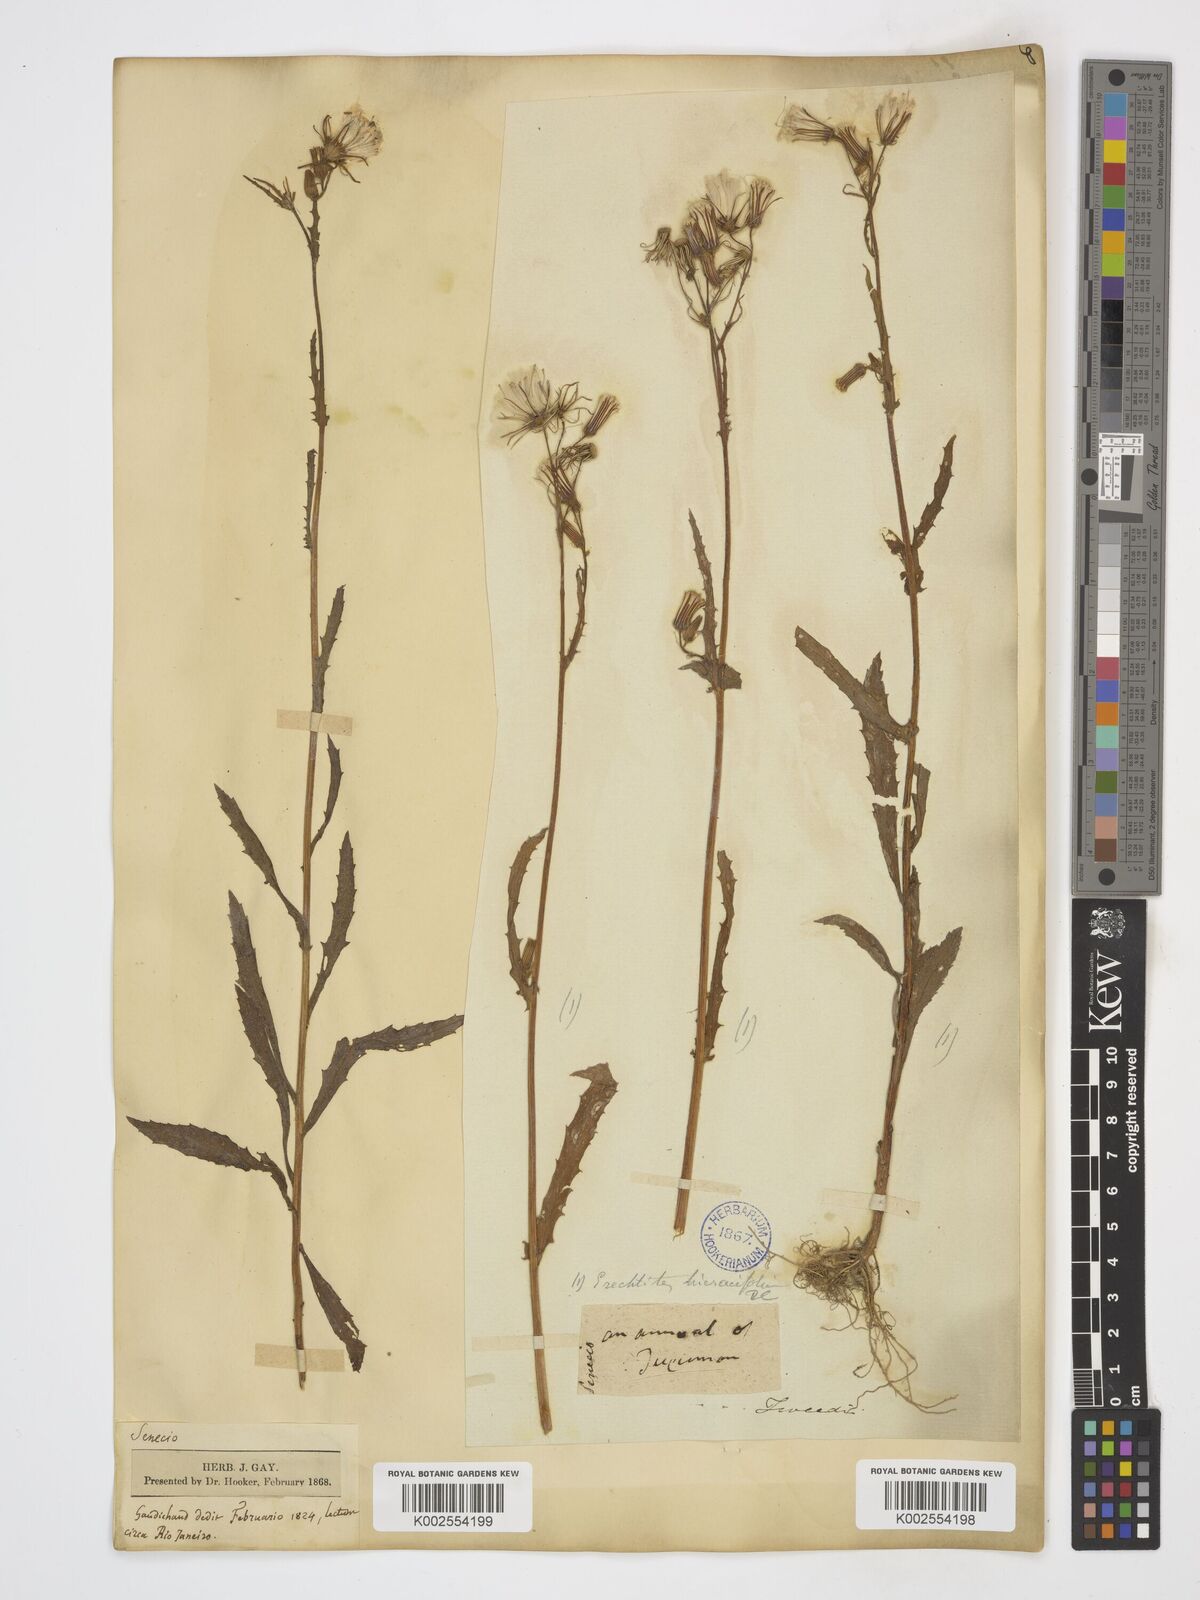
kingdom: Plantae
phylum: Tracheophyta
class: Magnoliopsida
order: Asterales
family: Asteraceae
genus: Senecio
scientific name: Senecio
